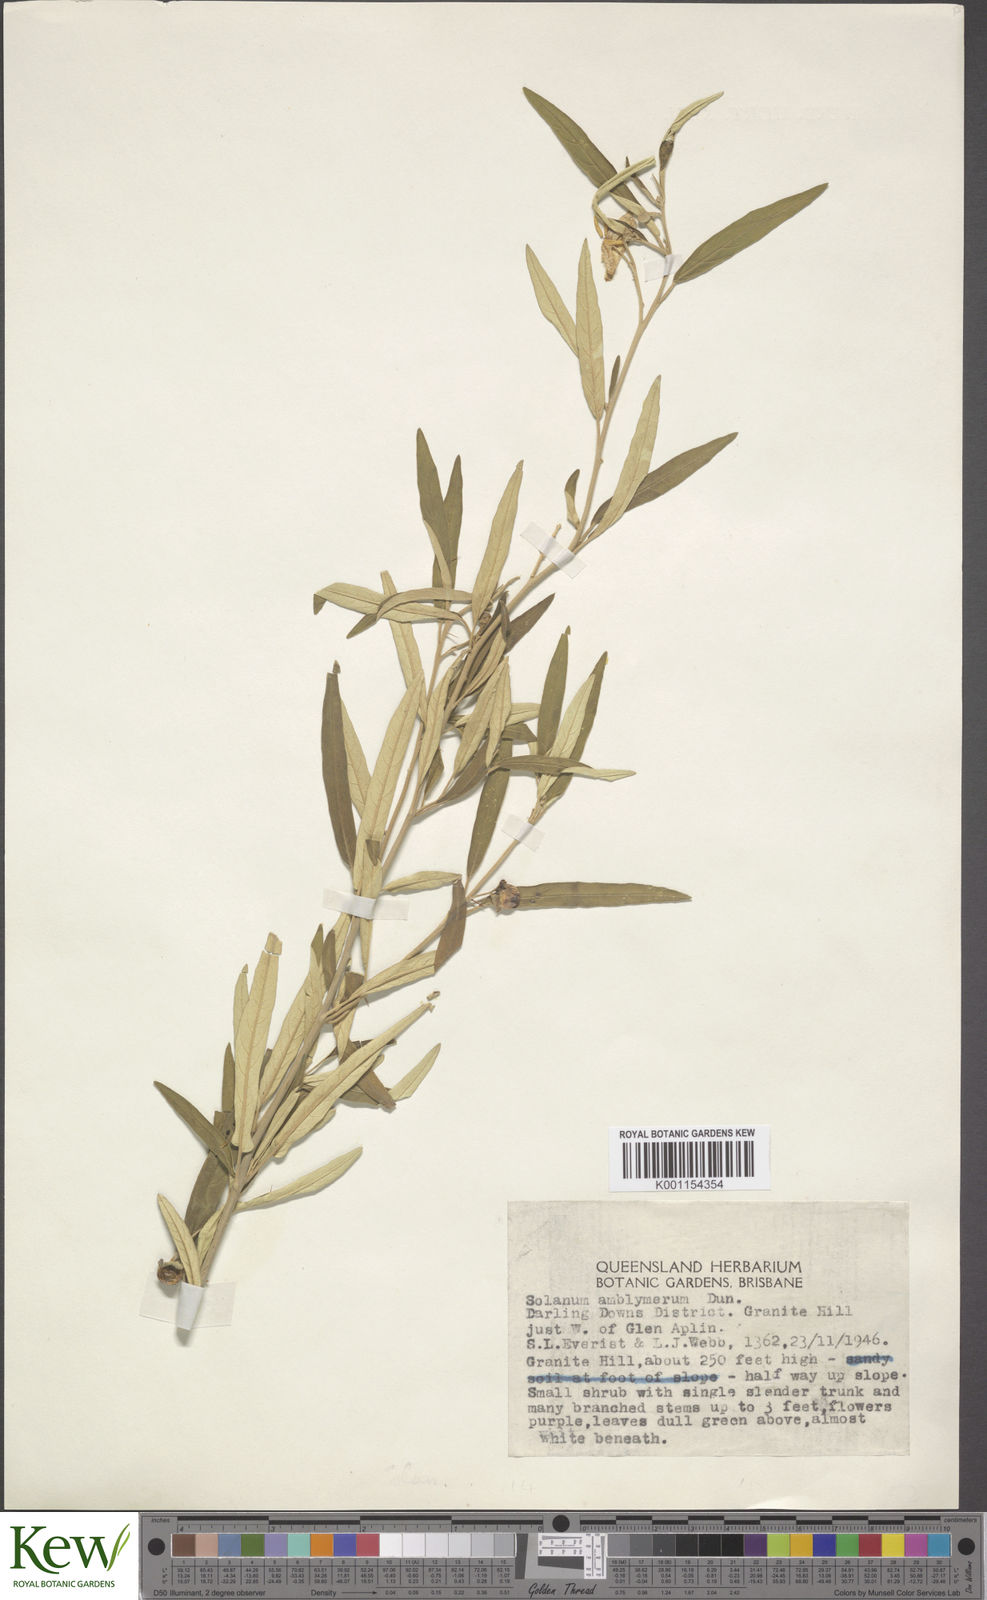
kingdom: Plantae
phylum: Tracheophyta
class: Magnoliopsida
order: Solanales
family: Solanaceae
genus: Solanum
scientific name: Solanum elegans
